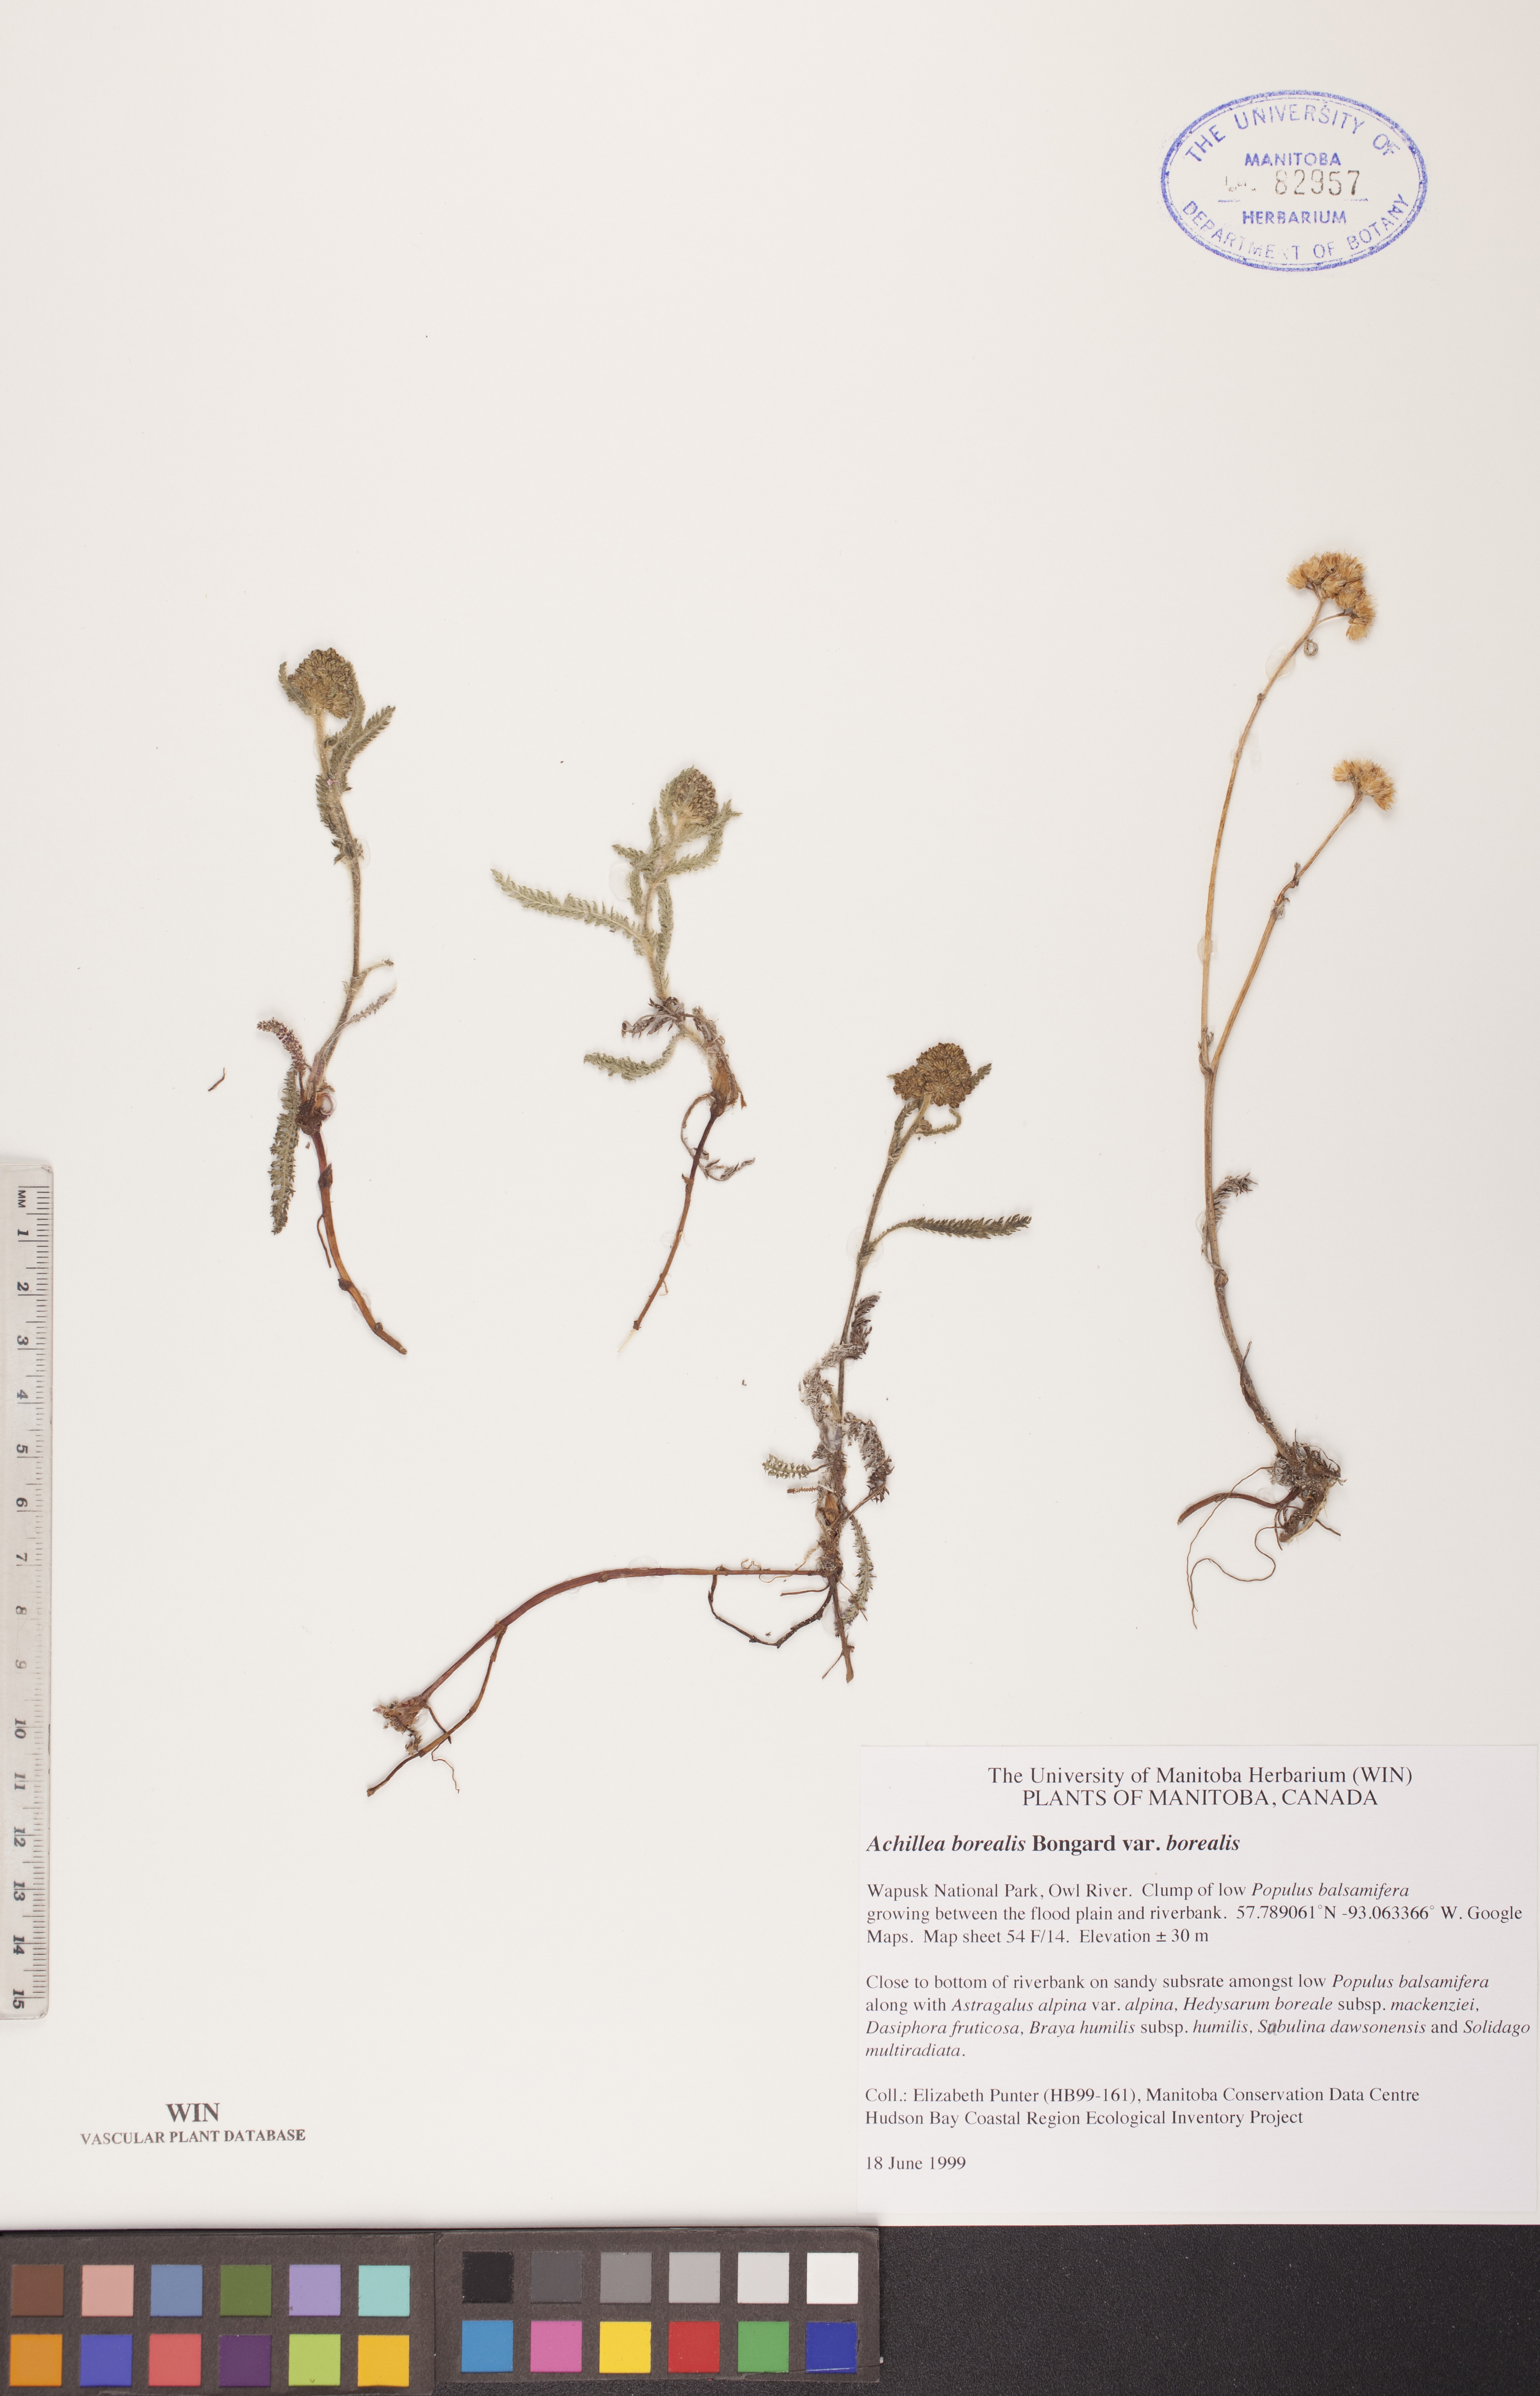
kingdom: Plantae
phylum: Tracheophyta
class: Magnoliopsida
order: Asterales
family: Asteraceae
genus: Achillea
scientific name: Achillea millefolium
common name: Yarrow
